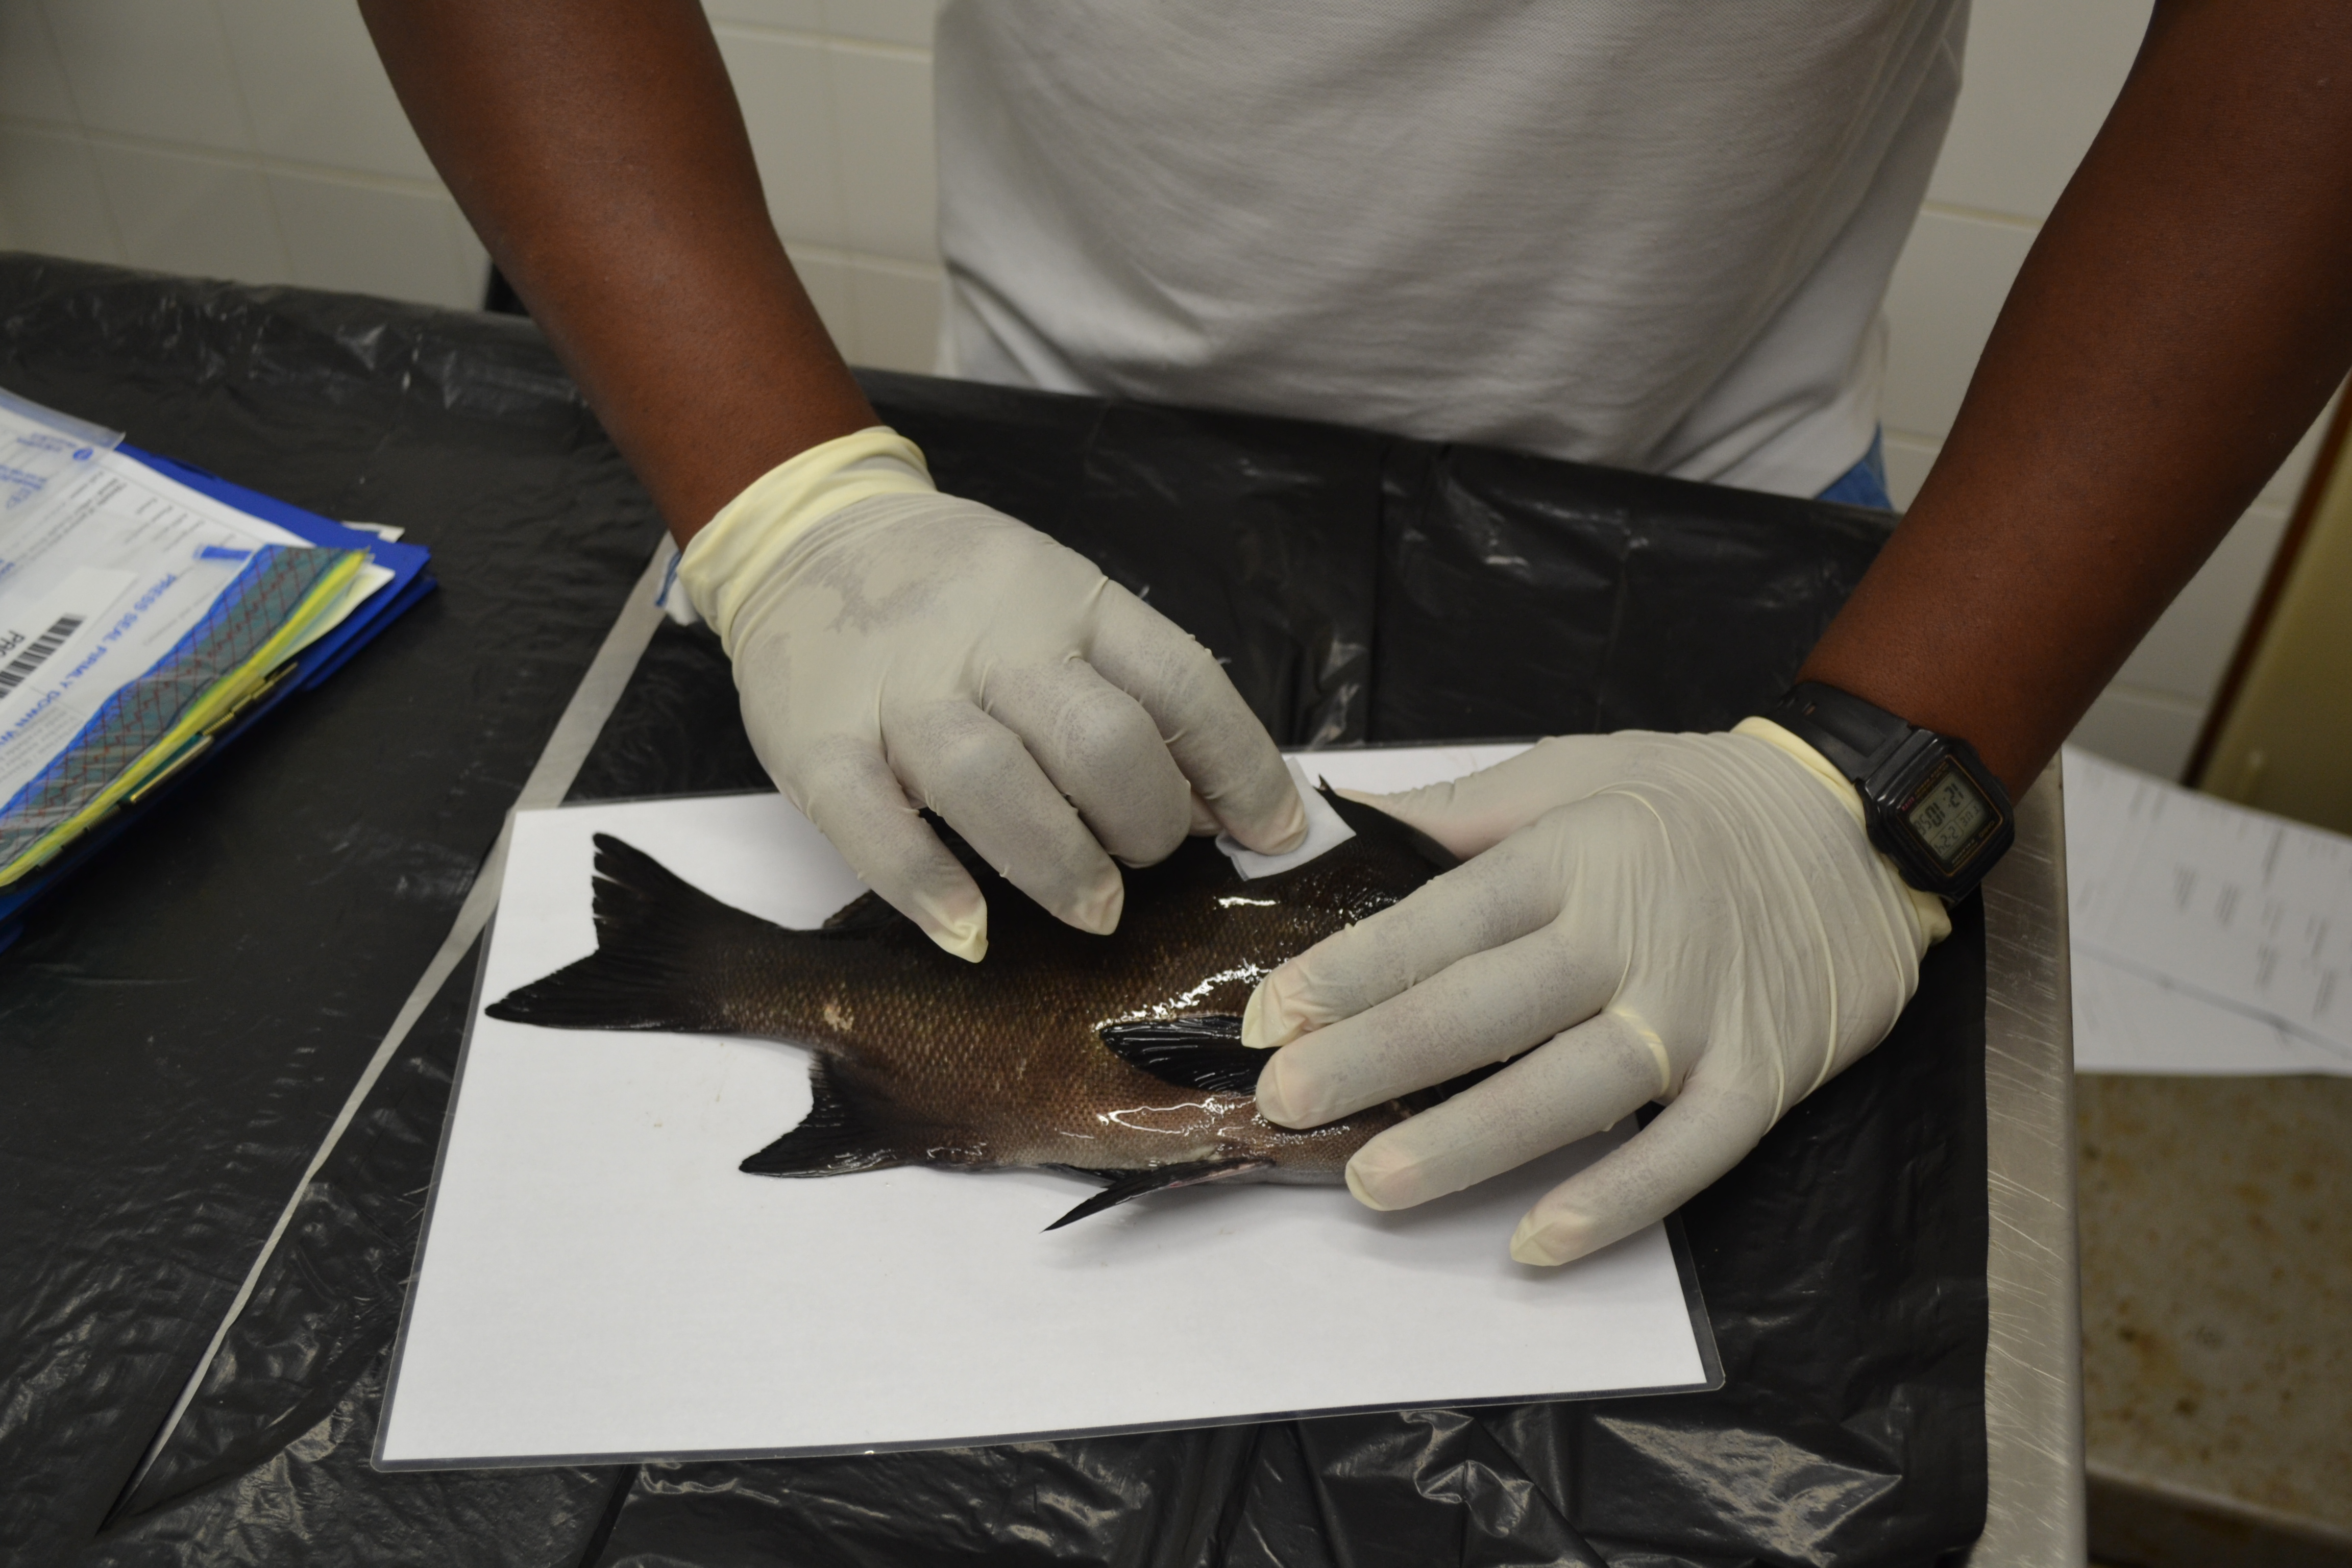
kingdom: Animalia
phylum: Chordata
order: Perciformes
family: Dichistiidae
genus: Dichistius
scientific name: Dichistius capensis
